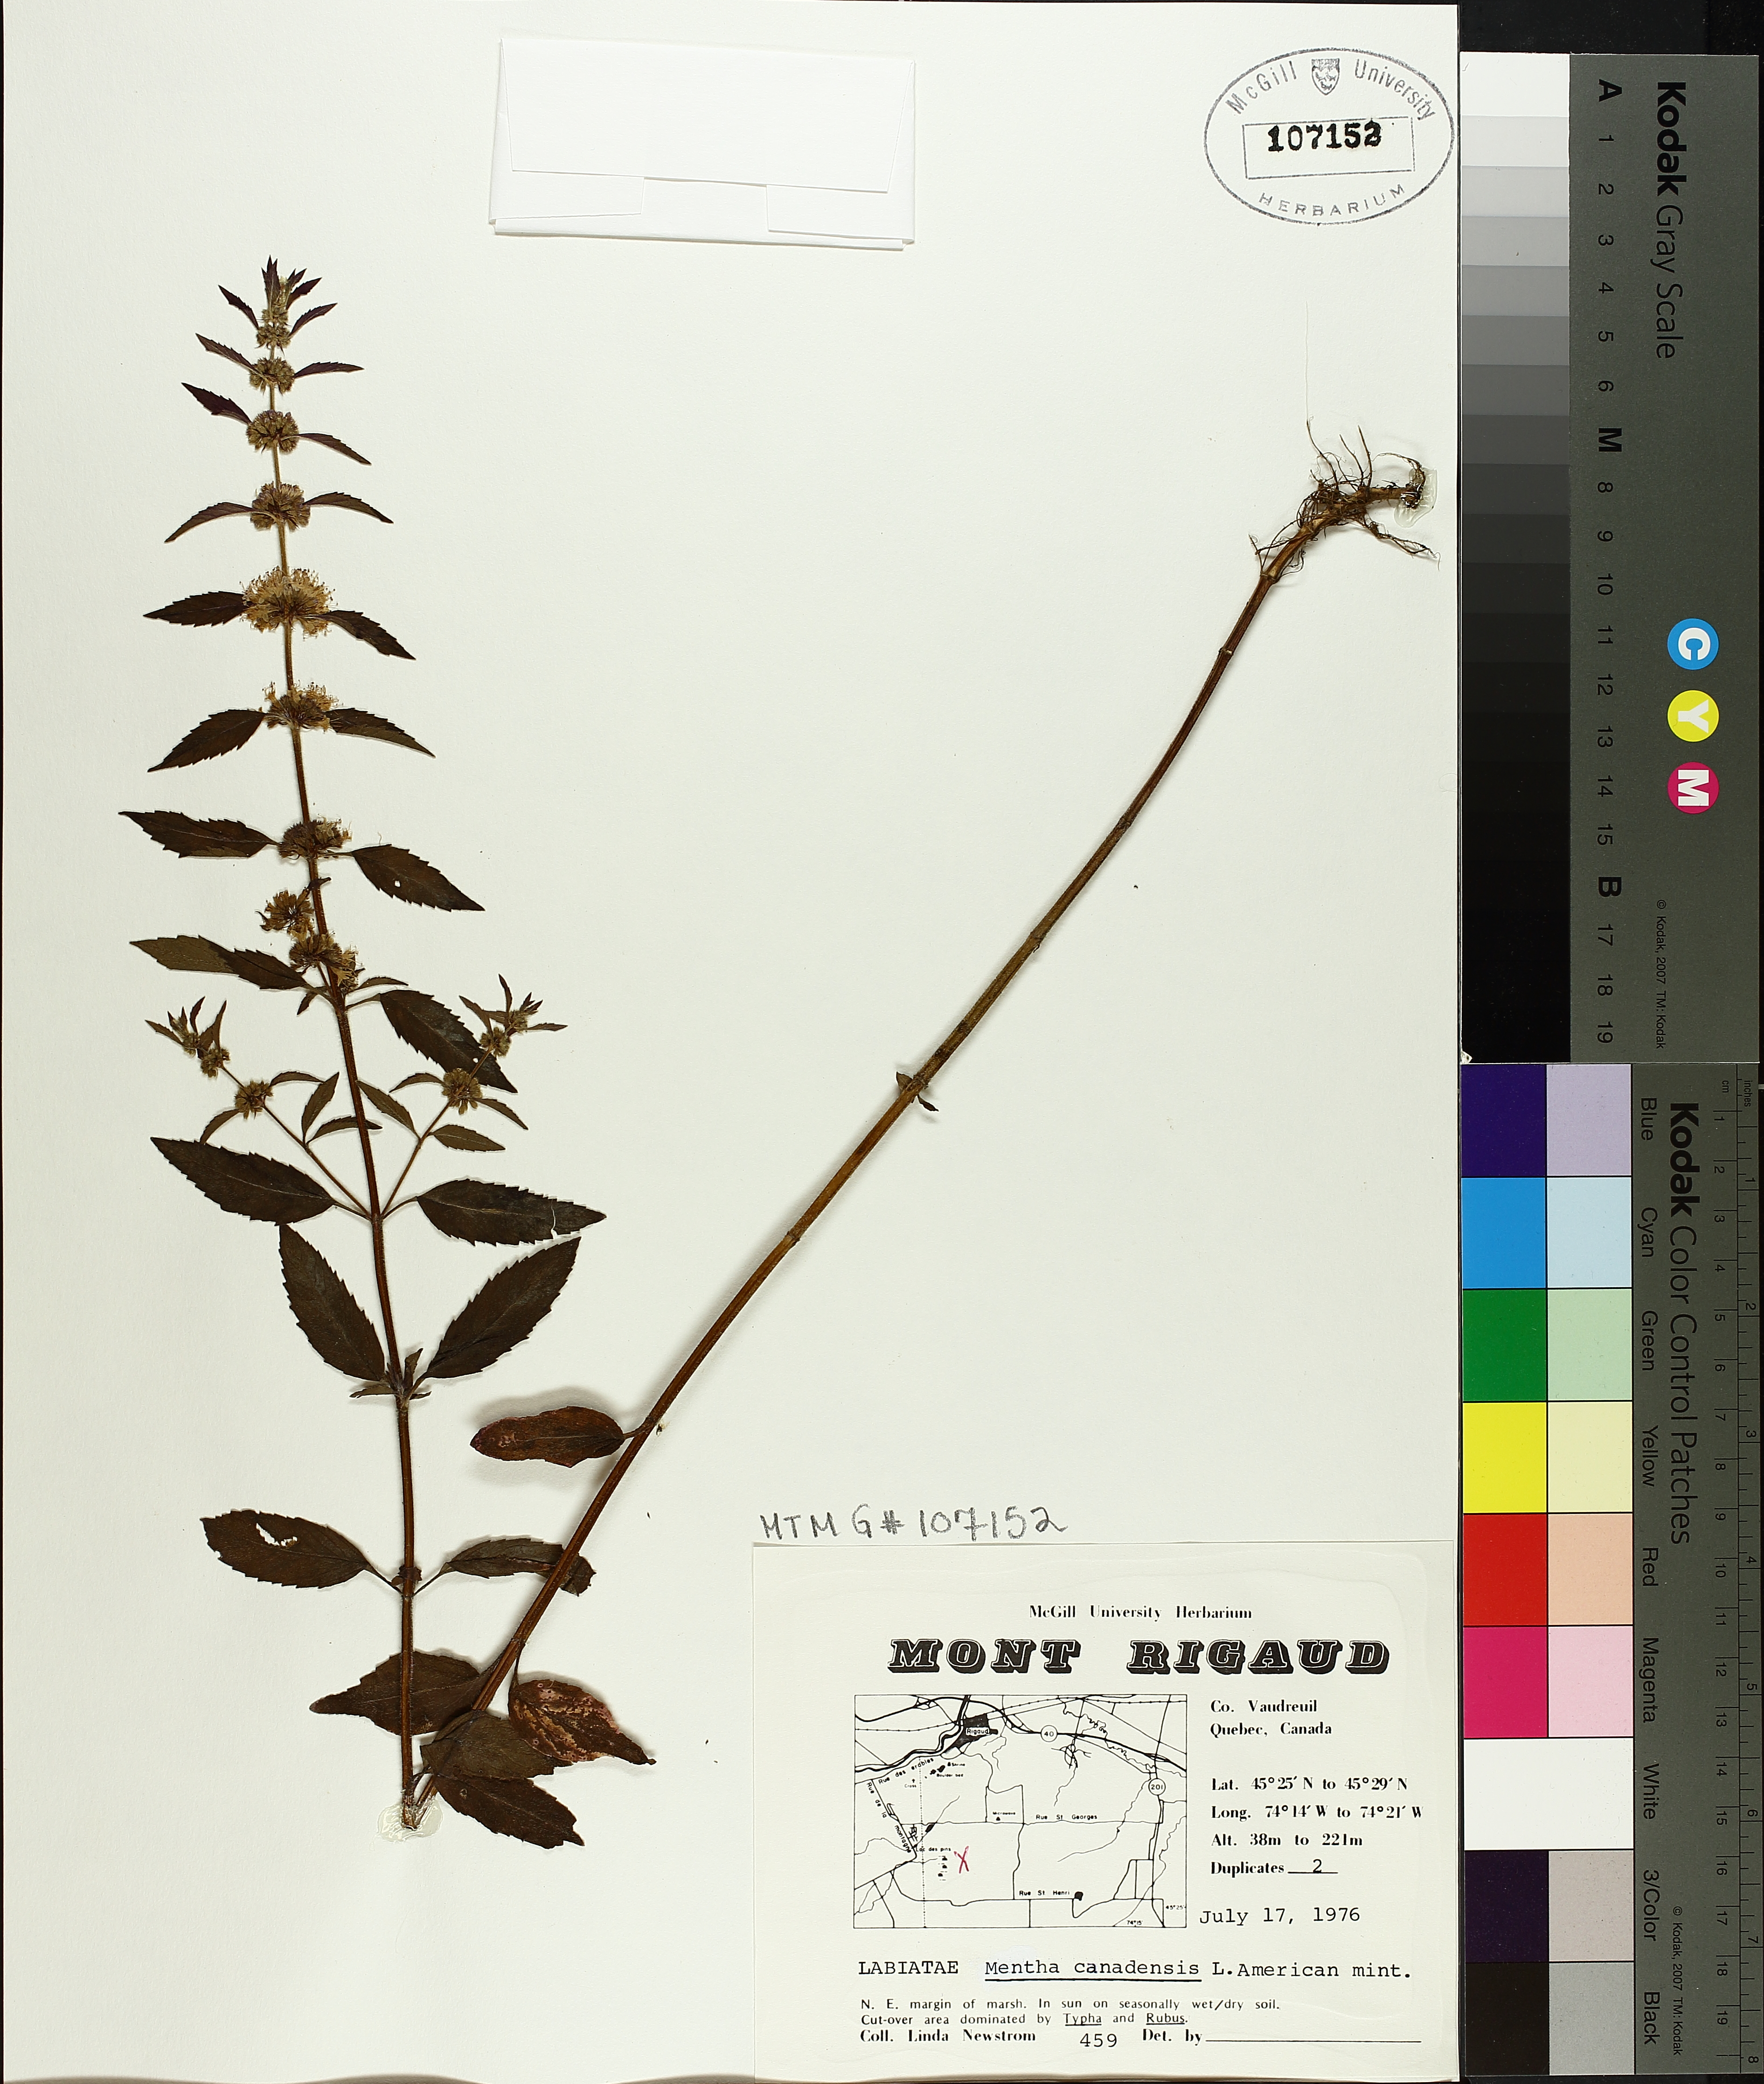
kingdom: Plantae
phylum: Tracheophyta
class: Magnoliopsida
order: Lamiales
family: Lamiaceae
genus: Mentha
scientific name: Mentha canadensis
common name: American corn mint
